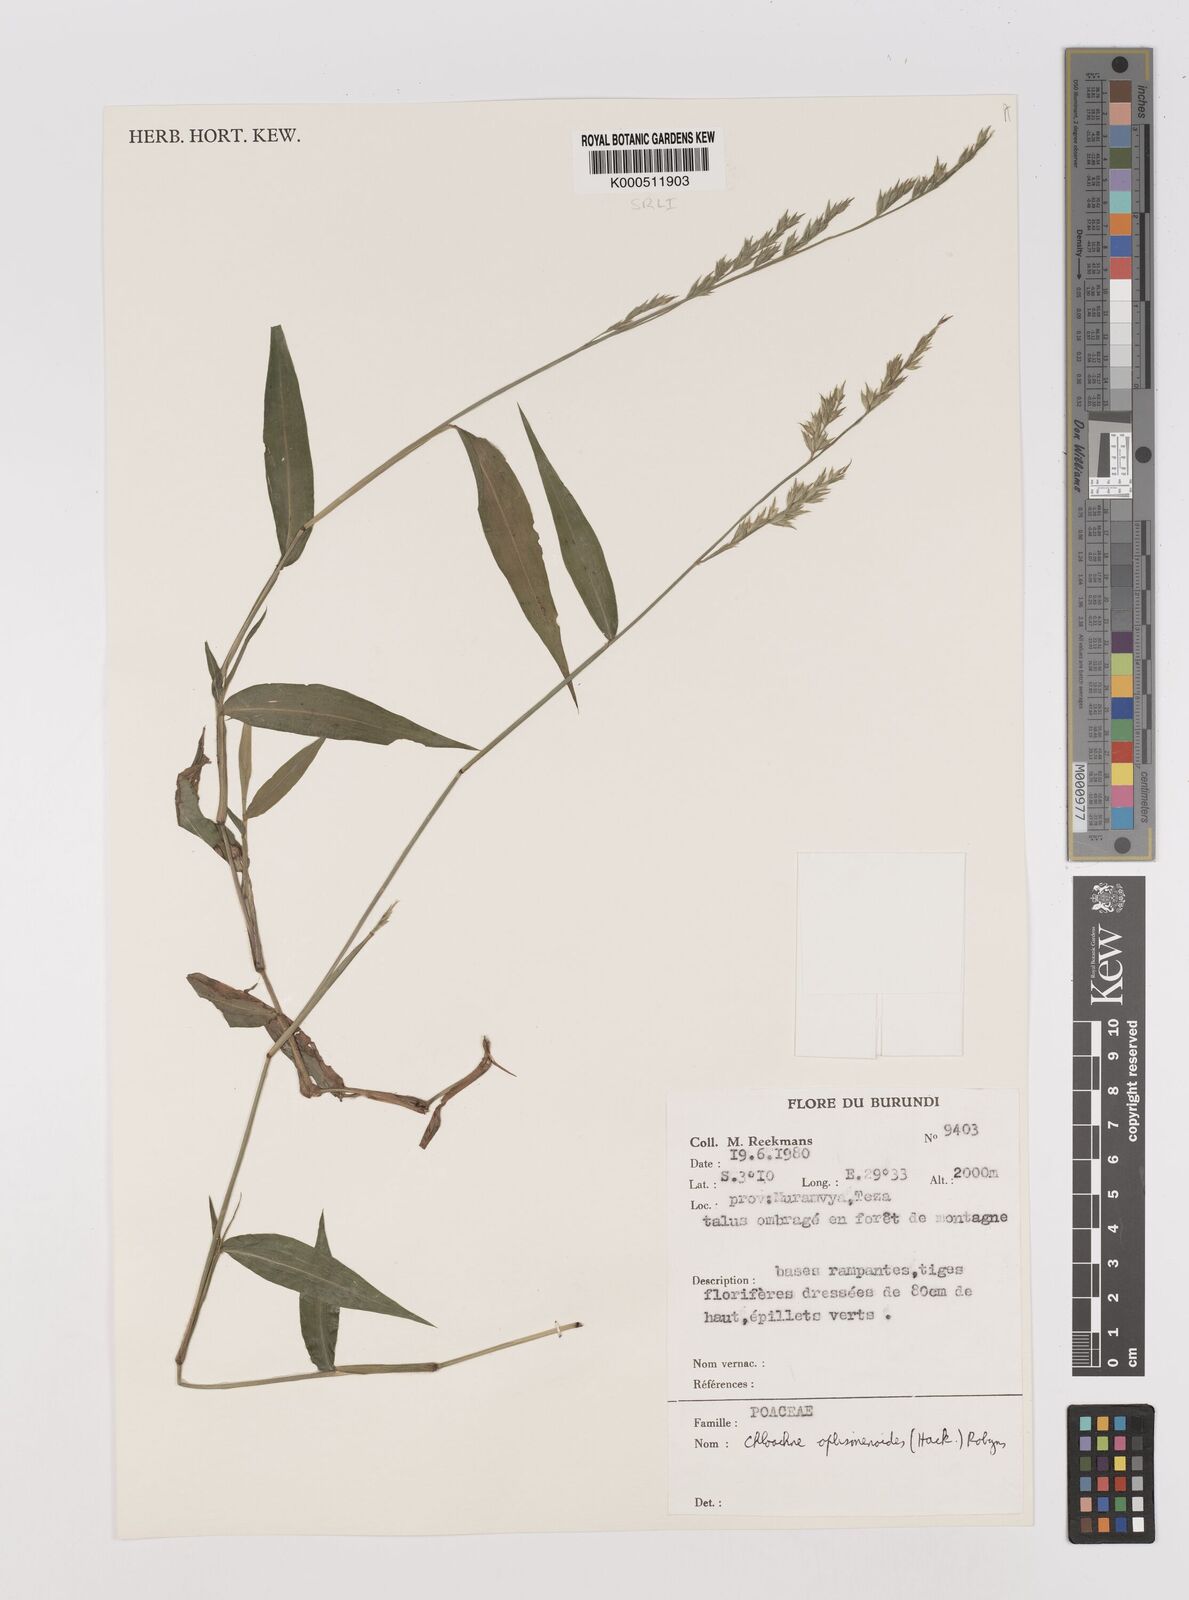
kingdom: Plantae
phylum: Tracheophyta
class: Liliopsida
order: Poales
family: Poaceae
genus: Poecilostachys
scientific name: Poecilostachys oplismenoides
